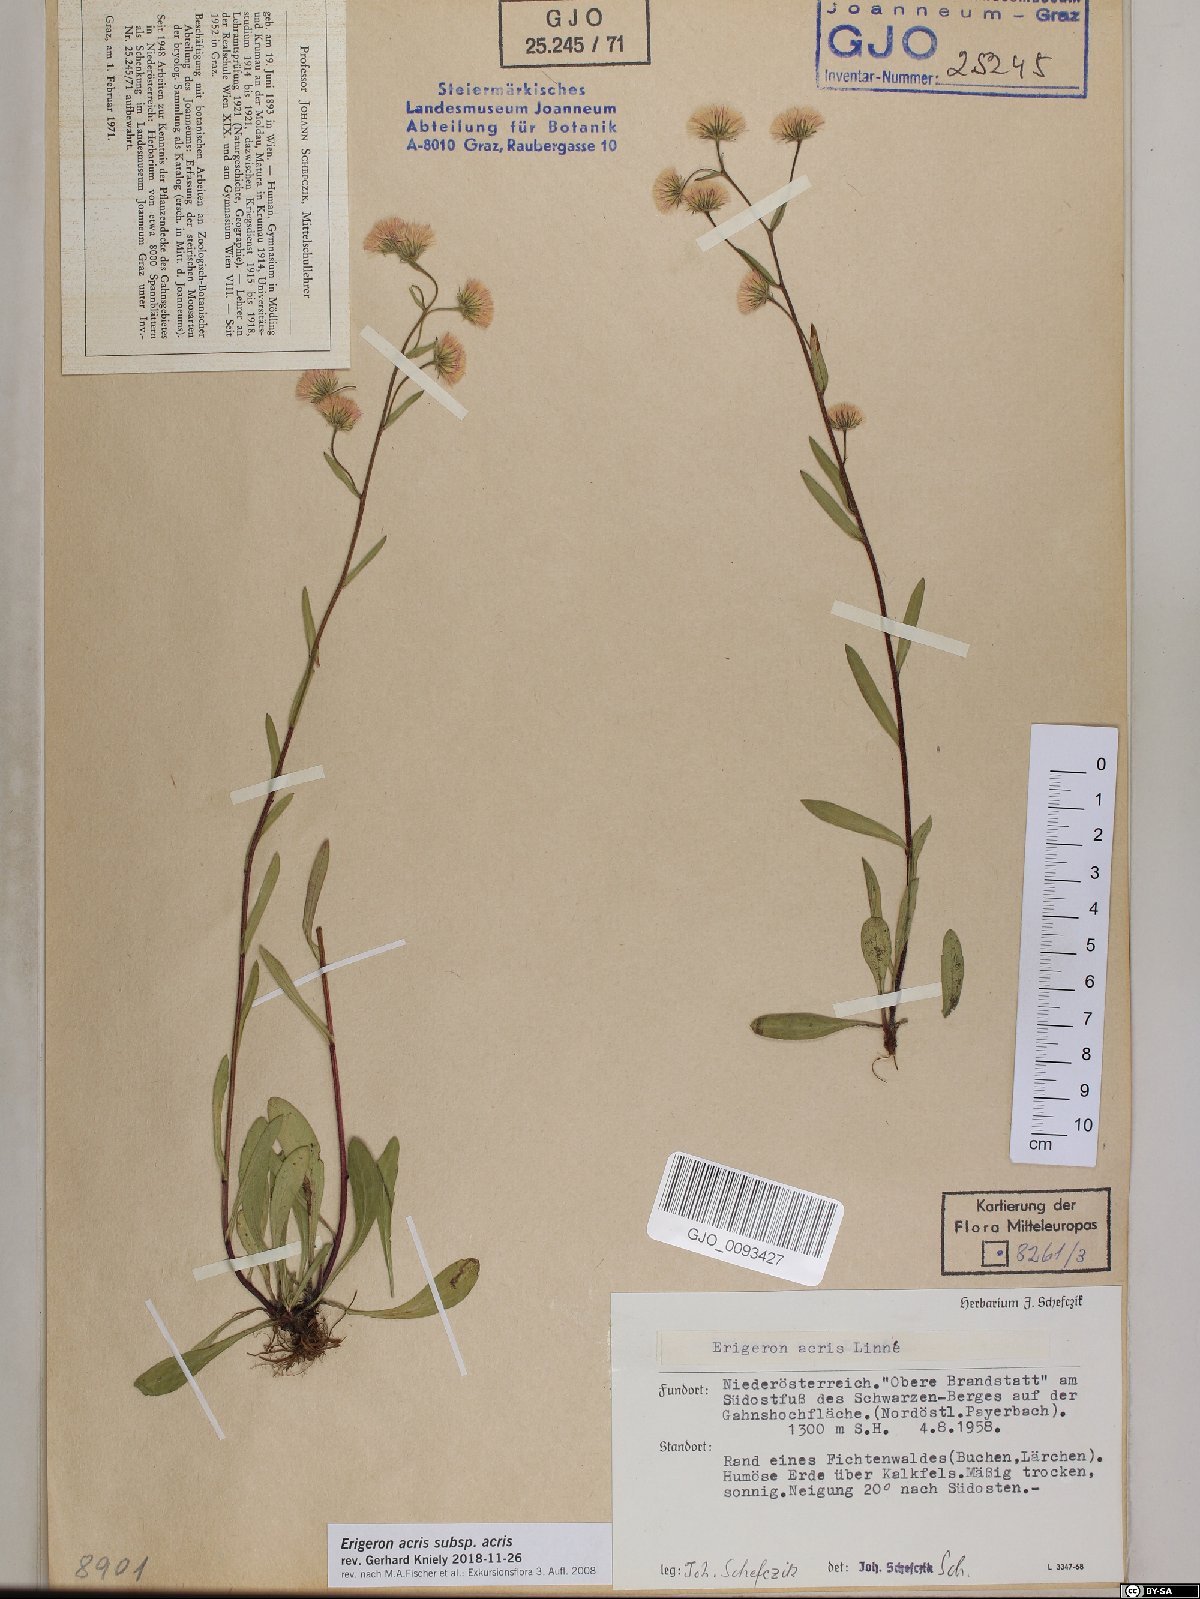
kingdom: Plantae
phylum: Tracheophyta
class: Magnoliopsida
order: Asterales
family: Asteraceae
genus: Erigeron
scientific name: Erigeron acris
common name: Blue fleabane
